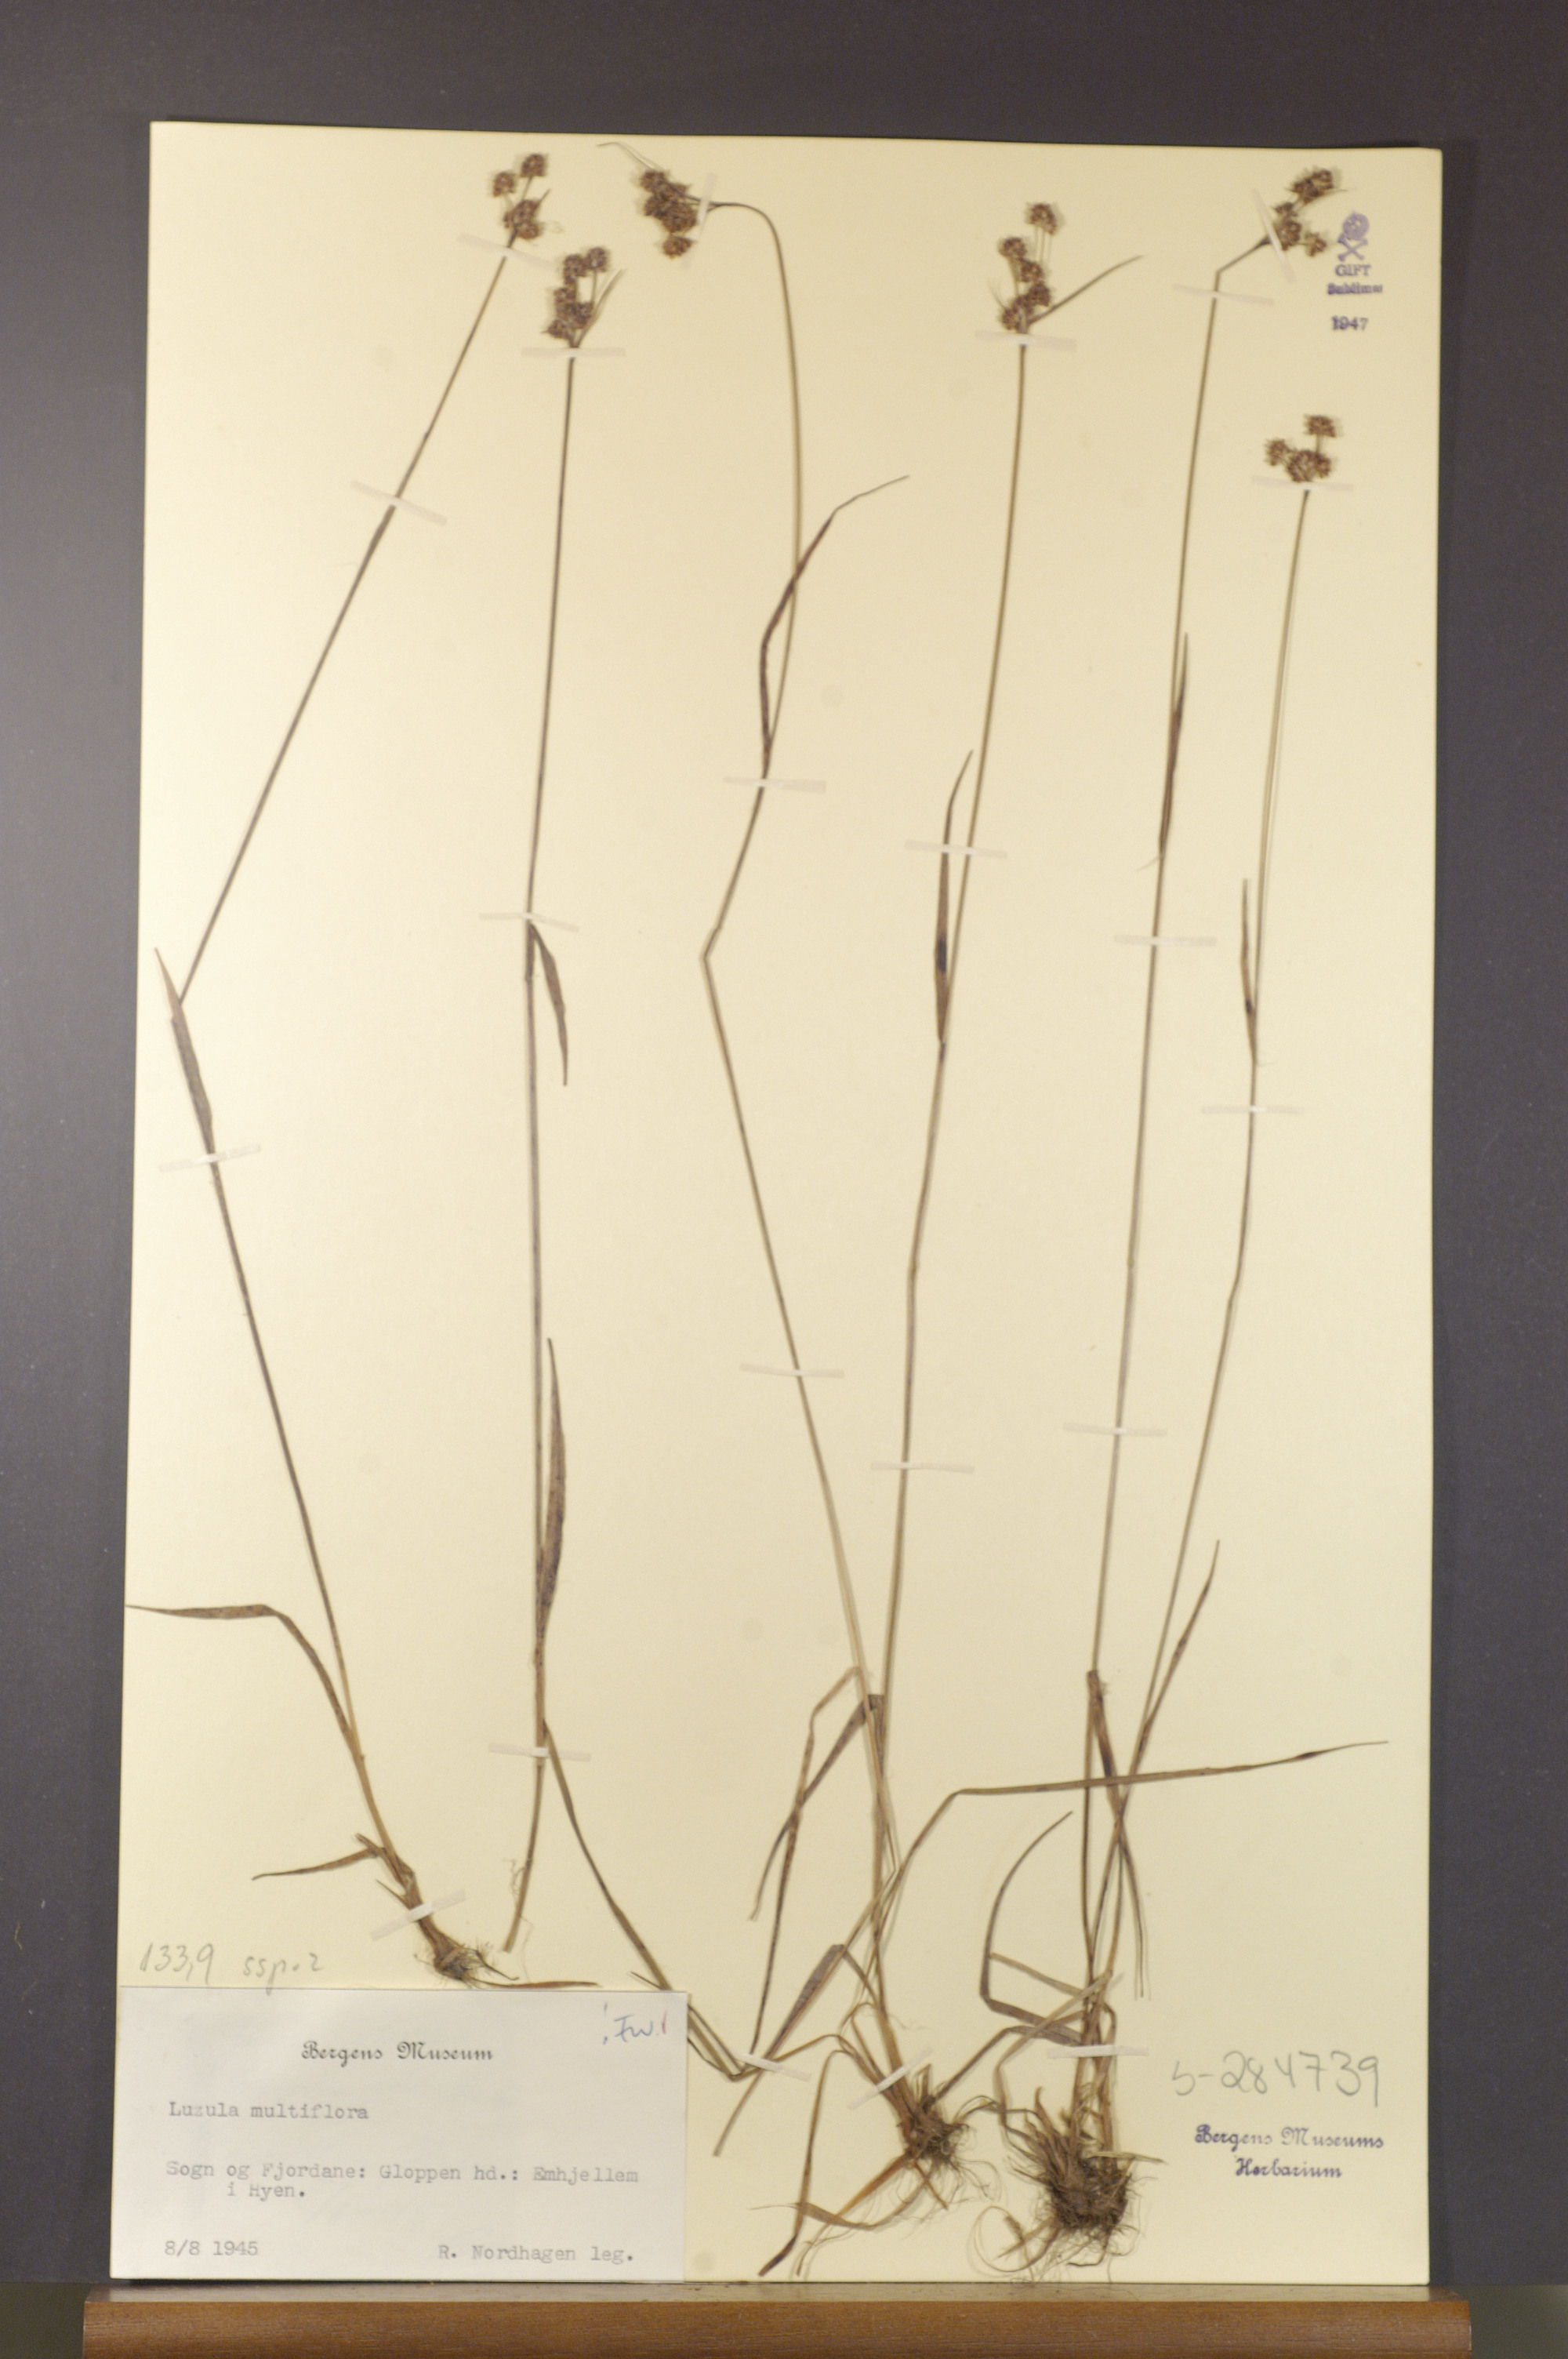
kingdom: Plantae
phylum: Tracheophyta
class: Liliopsida
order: Poales
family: Juncaceae
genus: Luzula
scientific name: Luzula multiflora
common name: Heath wood-rush
